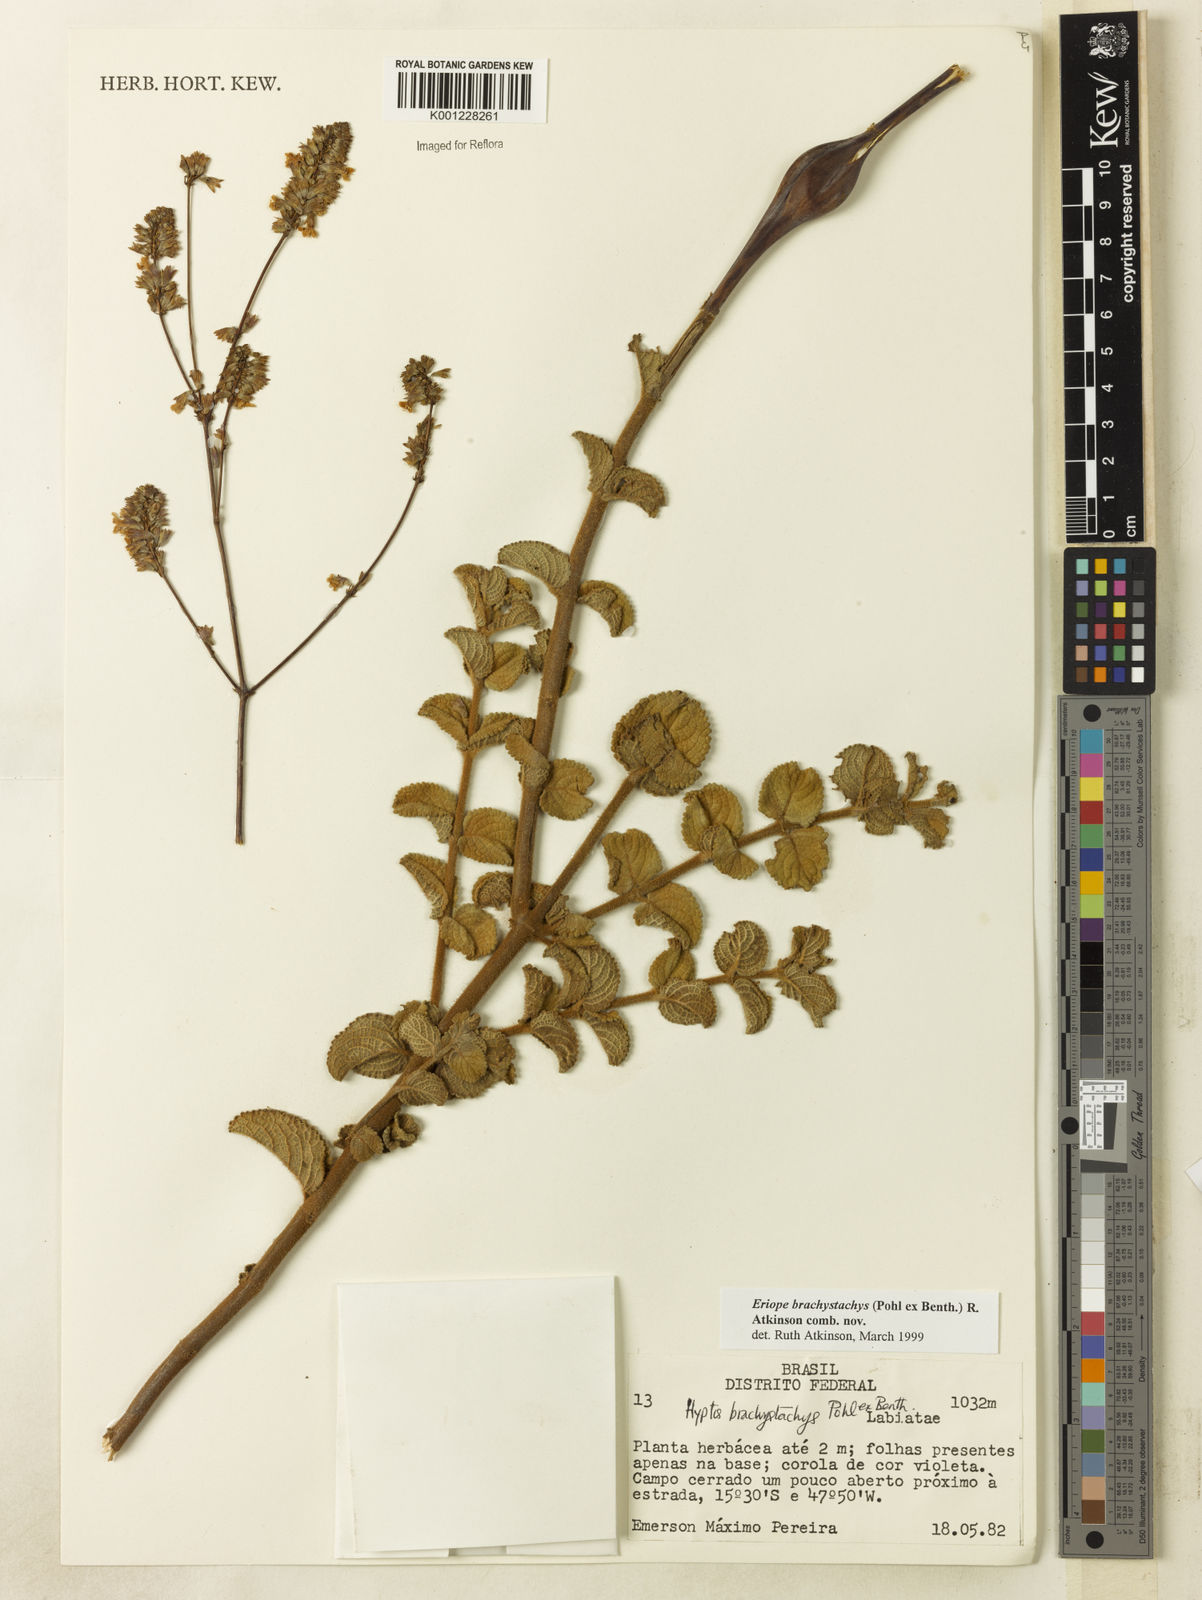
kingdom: Plantae
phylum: Tracheophyta
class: Magnoliopsida
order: Lamiales
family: Lamiaceae
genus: Hypenia
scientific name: Hypenia brachystachys
